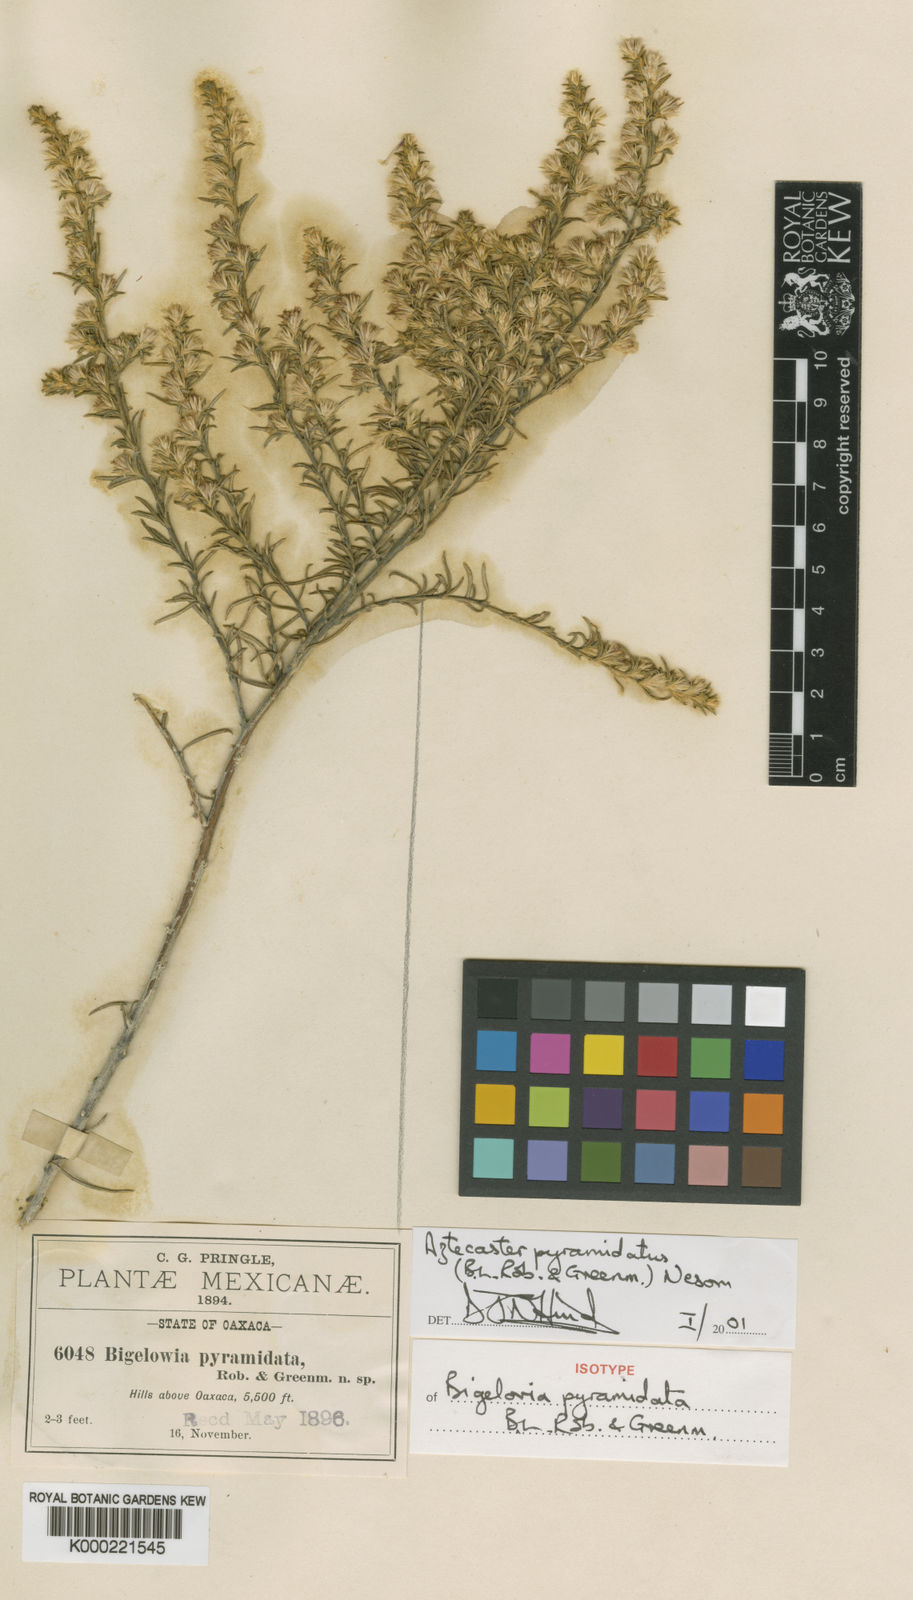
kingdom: Plantae
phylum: Tracheophyta
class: Magnoliopsida
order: Asterales
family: Asteraceae
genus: Aztecaster
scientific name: Aztecaster
